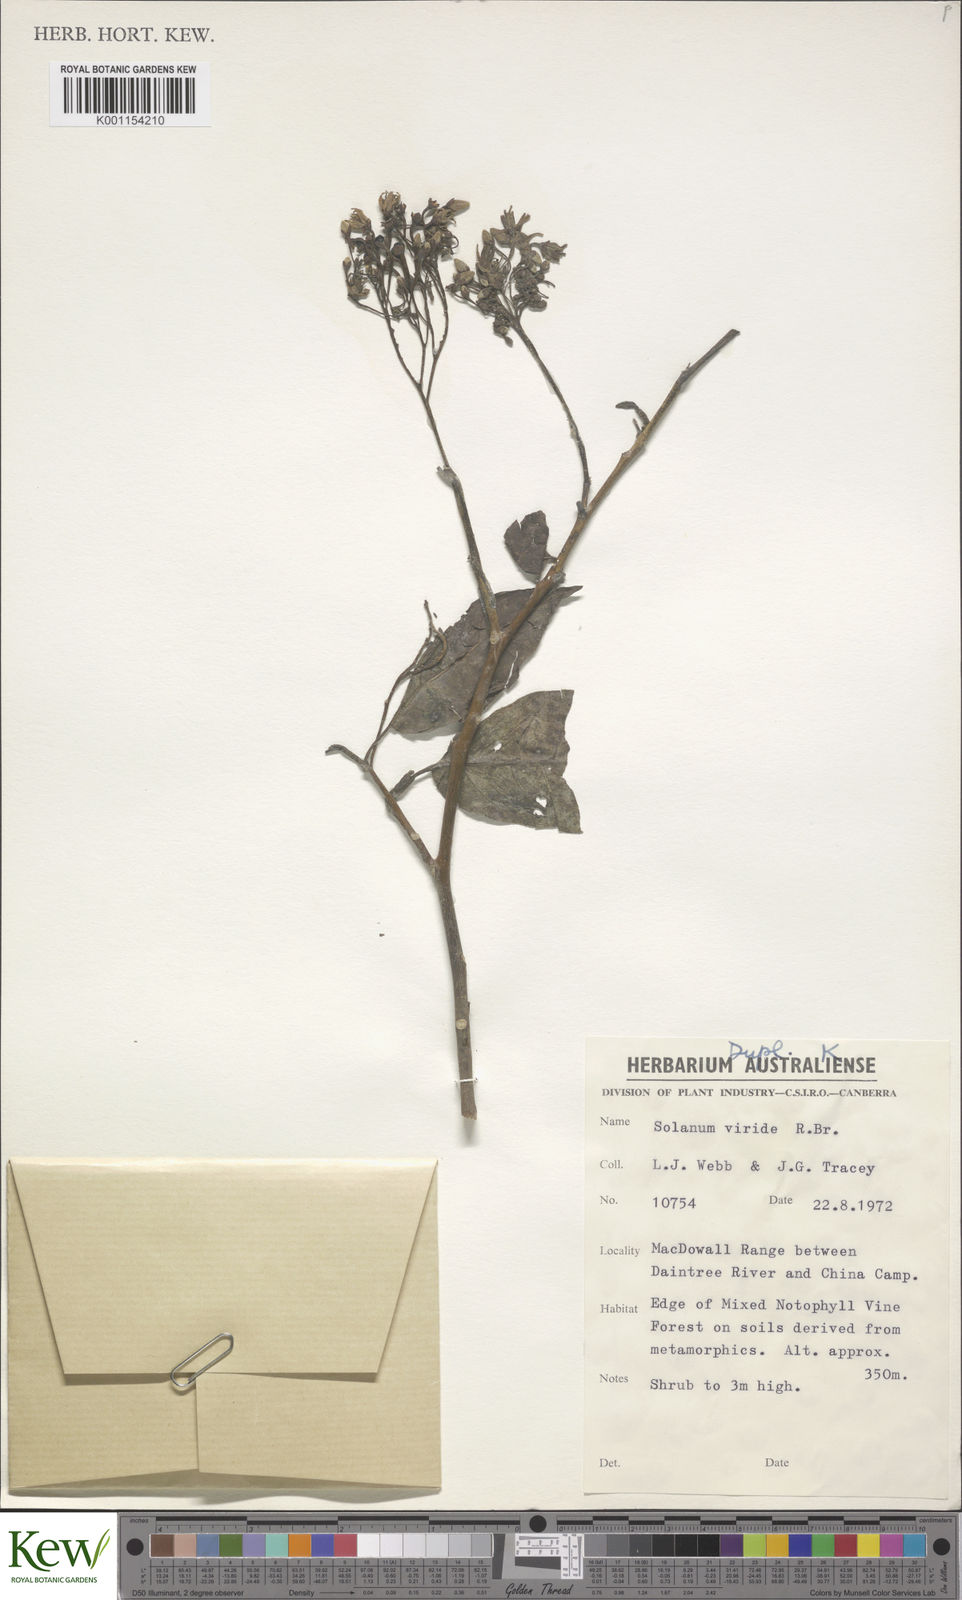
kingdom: Plantae
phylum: Tracheophyta
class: Magnoliopsida
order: Solanales
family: Solanaceae
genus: Solanum
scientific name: Solanum viridifolium
